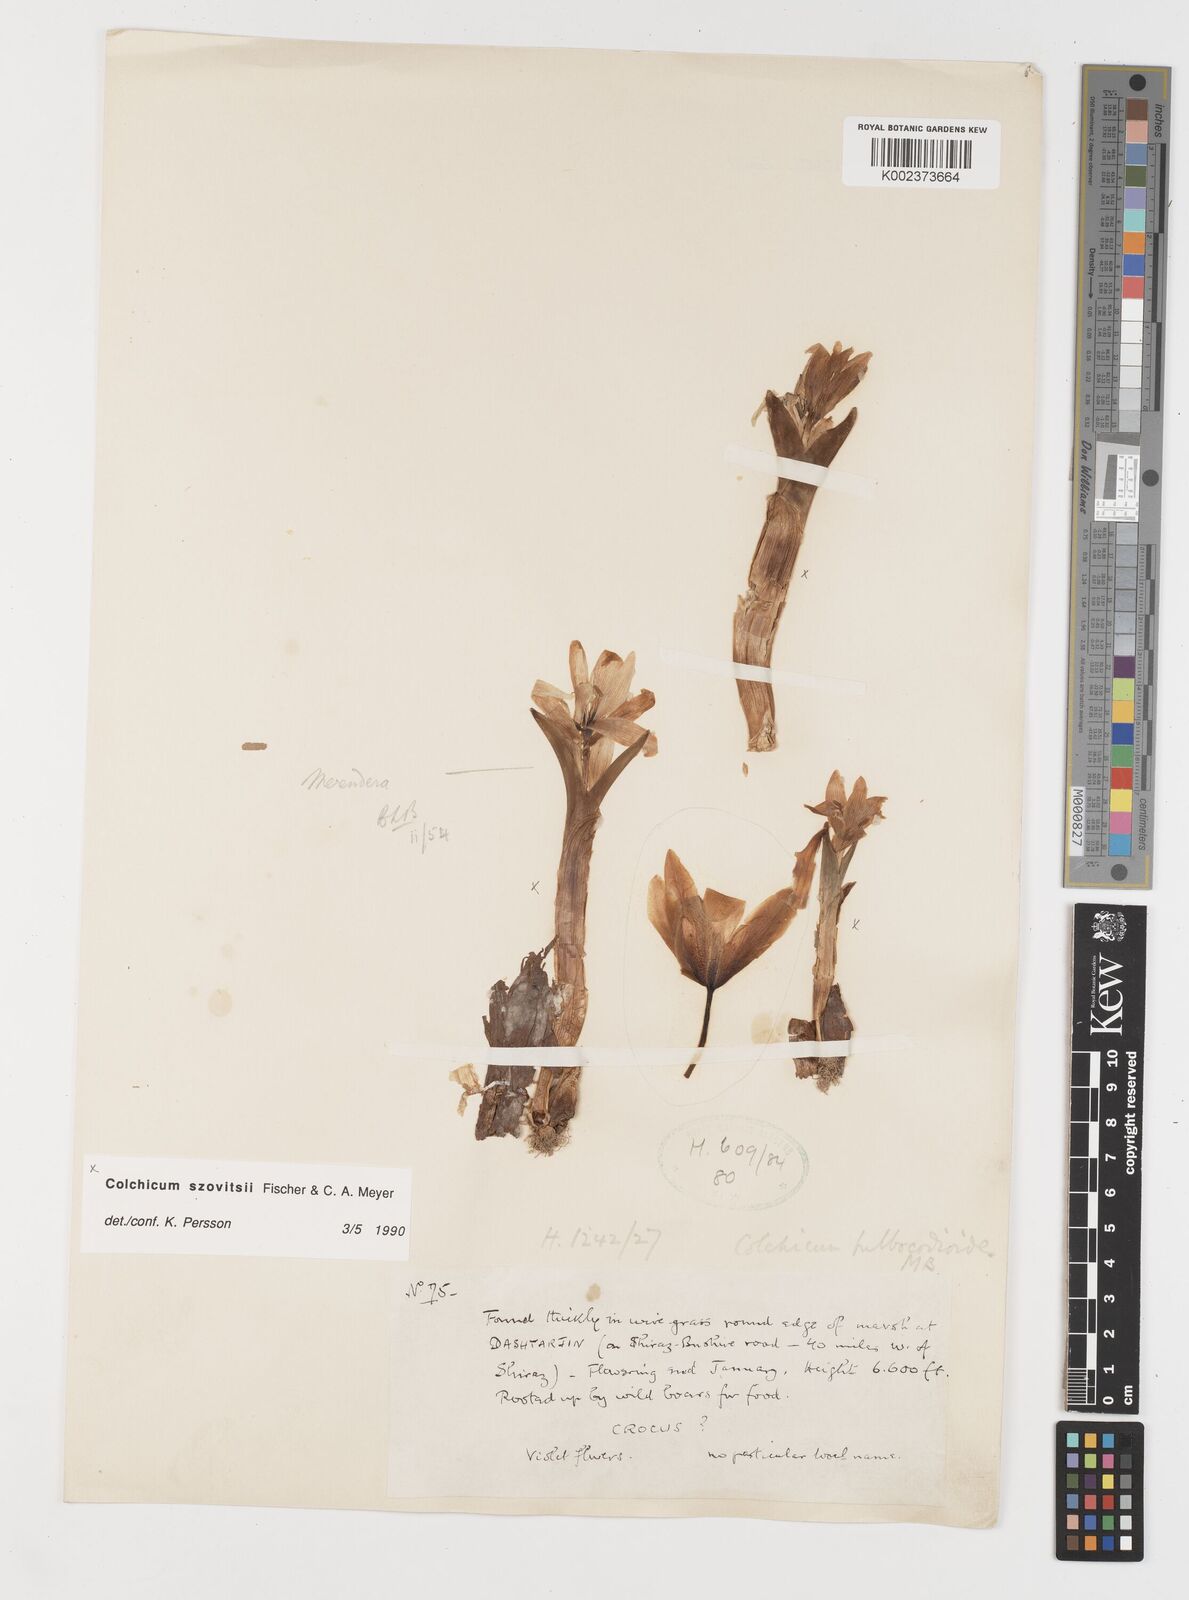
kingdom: Plantae
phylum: Tracheophyta
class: Liliopsida
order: Liliales
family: Colchicaceae
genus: Colchicum
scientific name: Colchicum szovitsii
